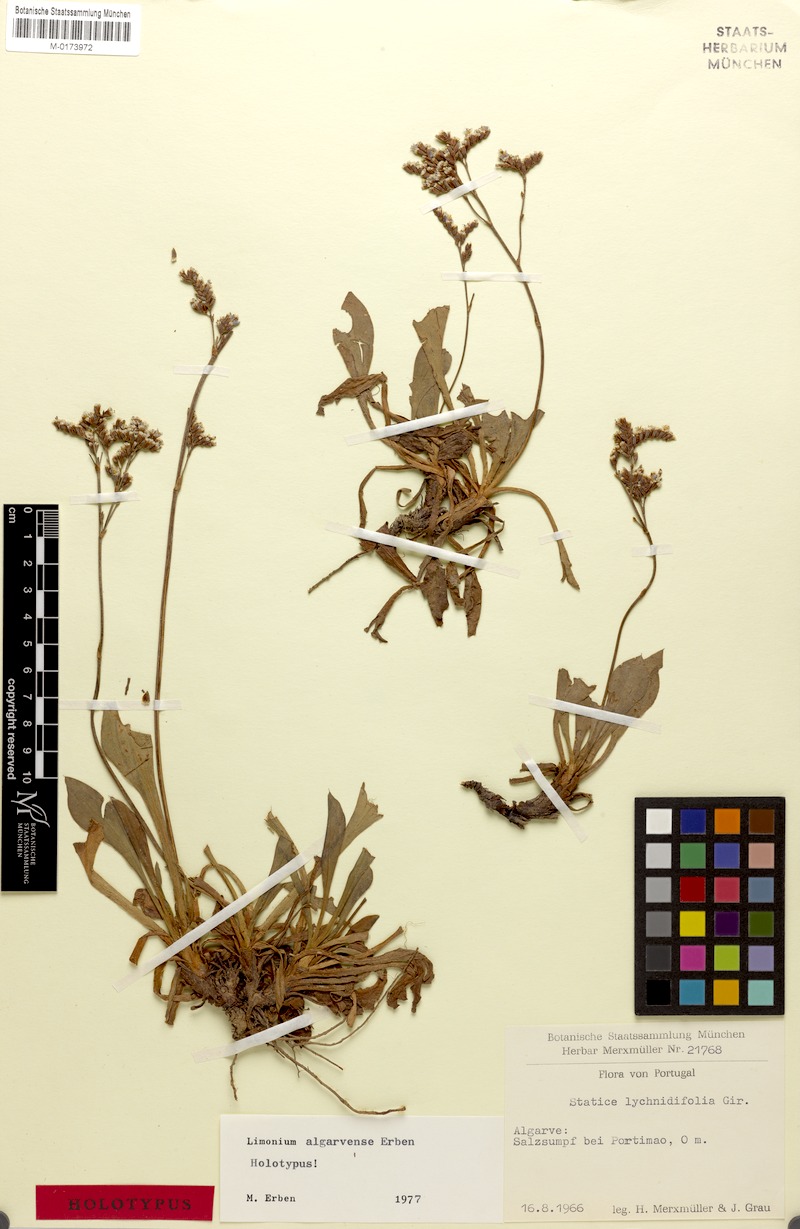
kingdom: Plantae
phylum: Tracheophyta
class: Magnoliopsida
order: Caryophyllales
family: Plumbaginaceae
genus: Limonium
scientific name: Limonium algarvense
